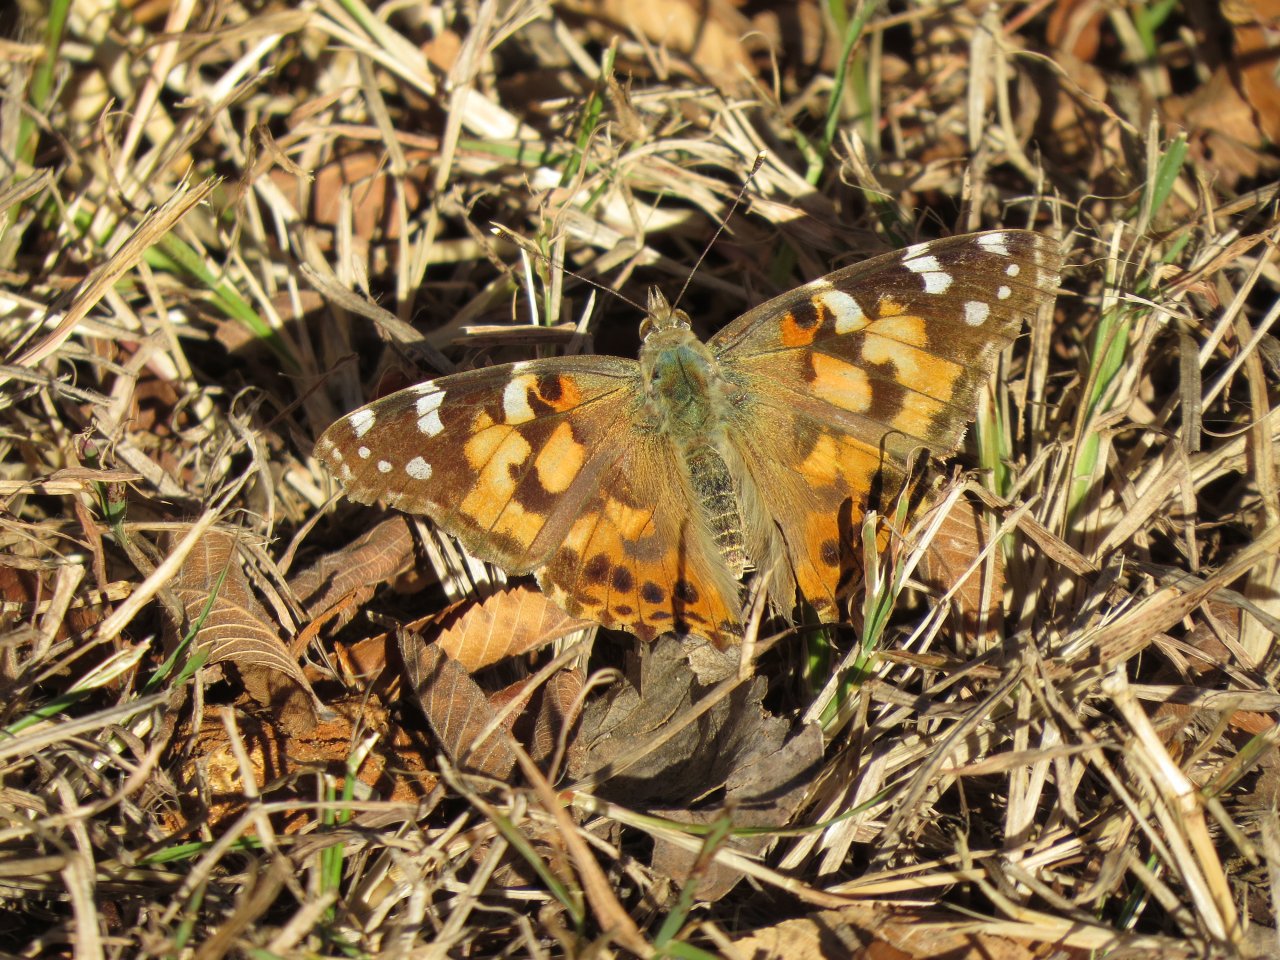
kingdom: Animalia
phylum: Arthropoda
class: Insecta
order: Lepidoptera
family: Nymphalidae
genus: Vanessa
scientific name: Vanessa cardui
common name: Painted Lady
